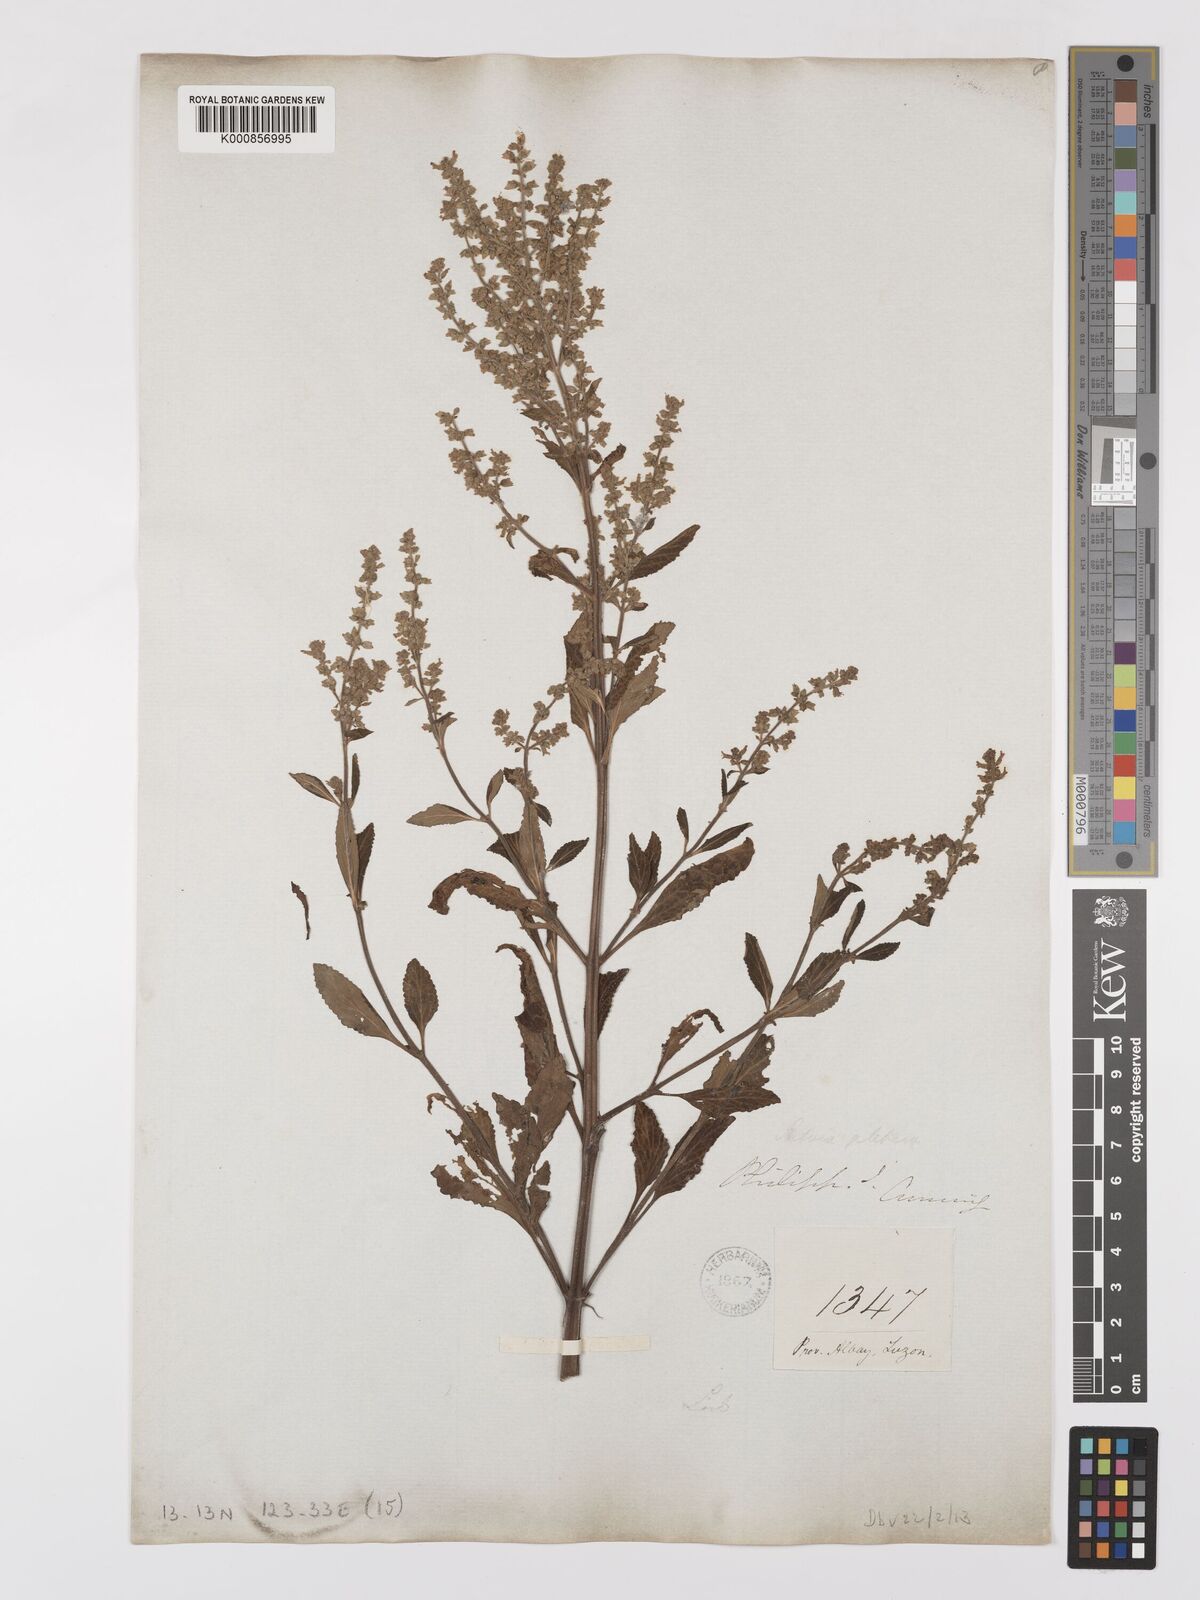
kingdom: Plantae
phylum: Tracheophyta
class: Magnoliopsida
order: Lamiales
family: Lamiaceae
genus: Salvia
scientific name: Salvia plebeia
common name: Australian sage
